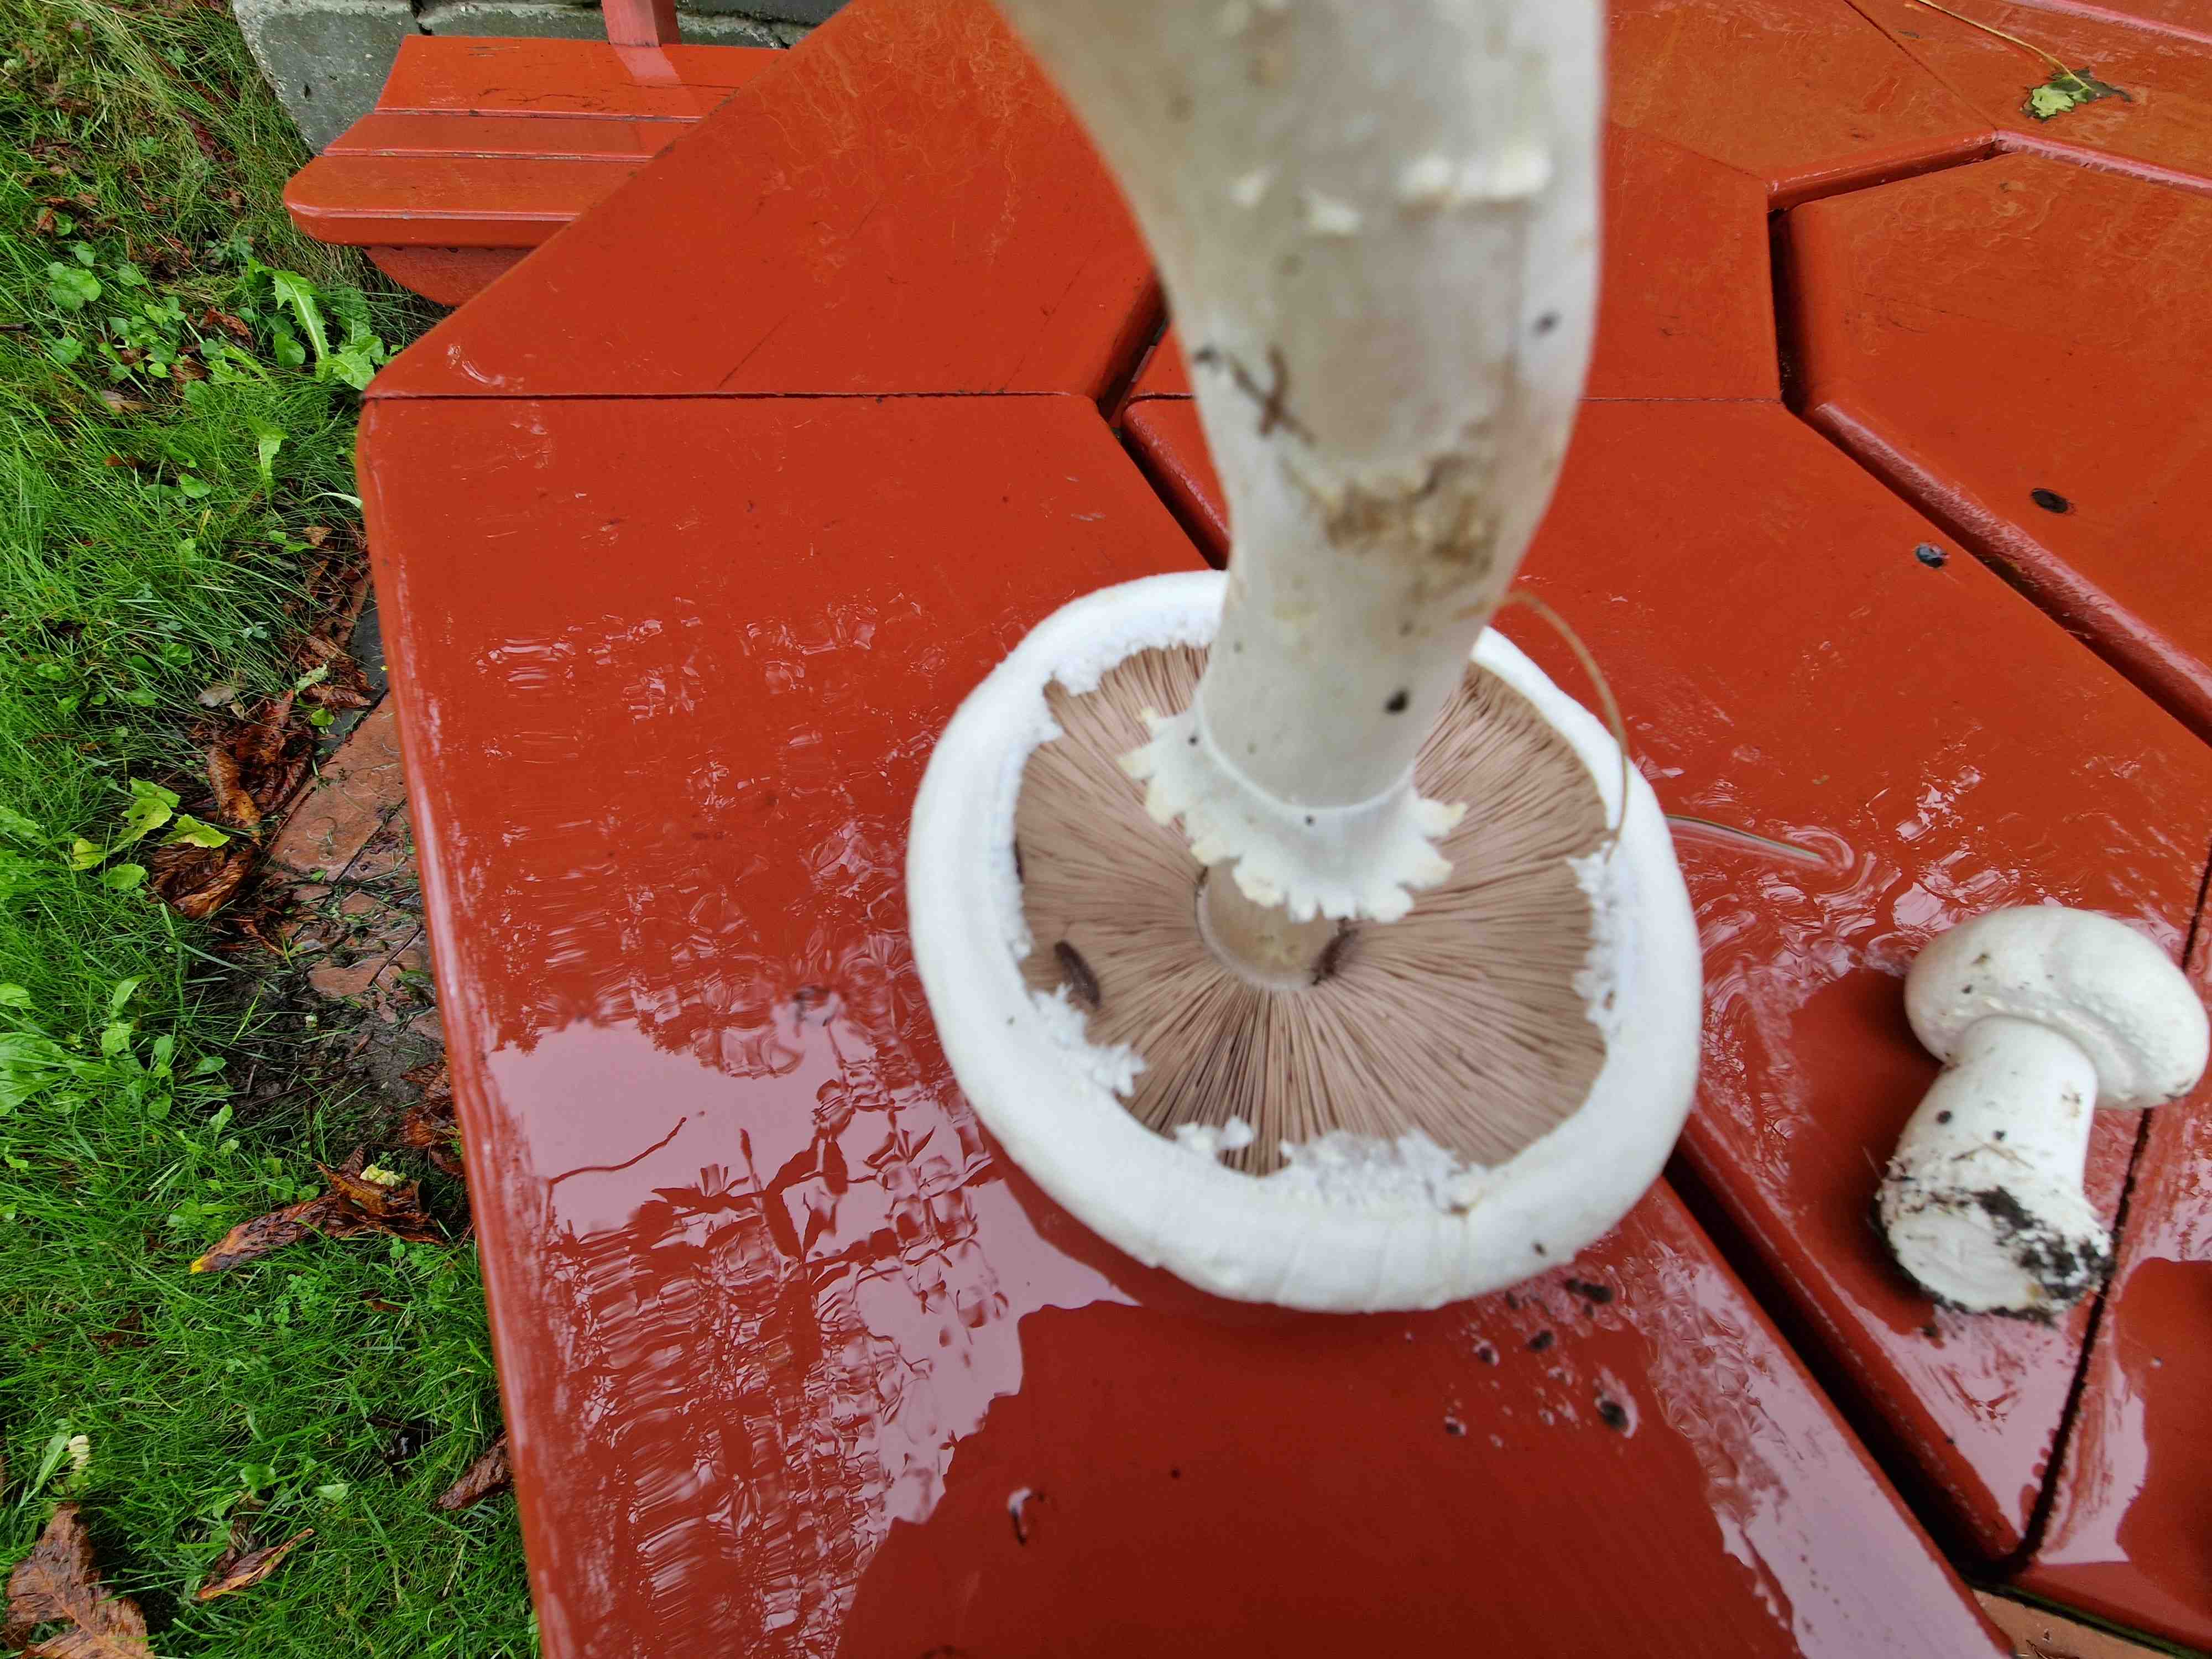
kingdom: Fungi
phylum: Basidiomycota
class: Agaricomycetes
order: Agaricales
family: Agaricaceae
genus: Agaricus
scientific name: Agaricus
